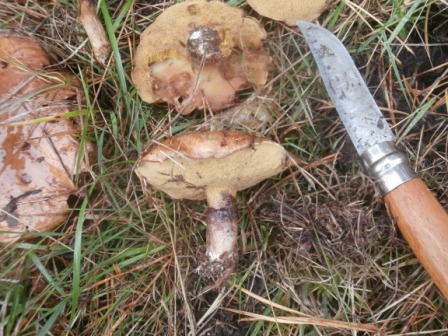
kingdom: Fungi
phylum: Basidiomycota
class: Agaricomycetes
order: Boletales
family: Suillaceae
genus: Suillus
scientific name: Suillus luteus
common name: brungul slimrørhat
